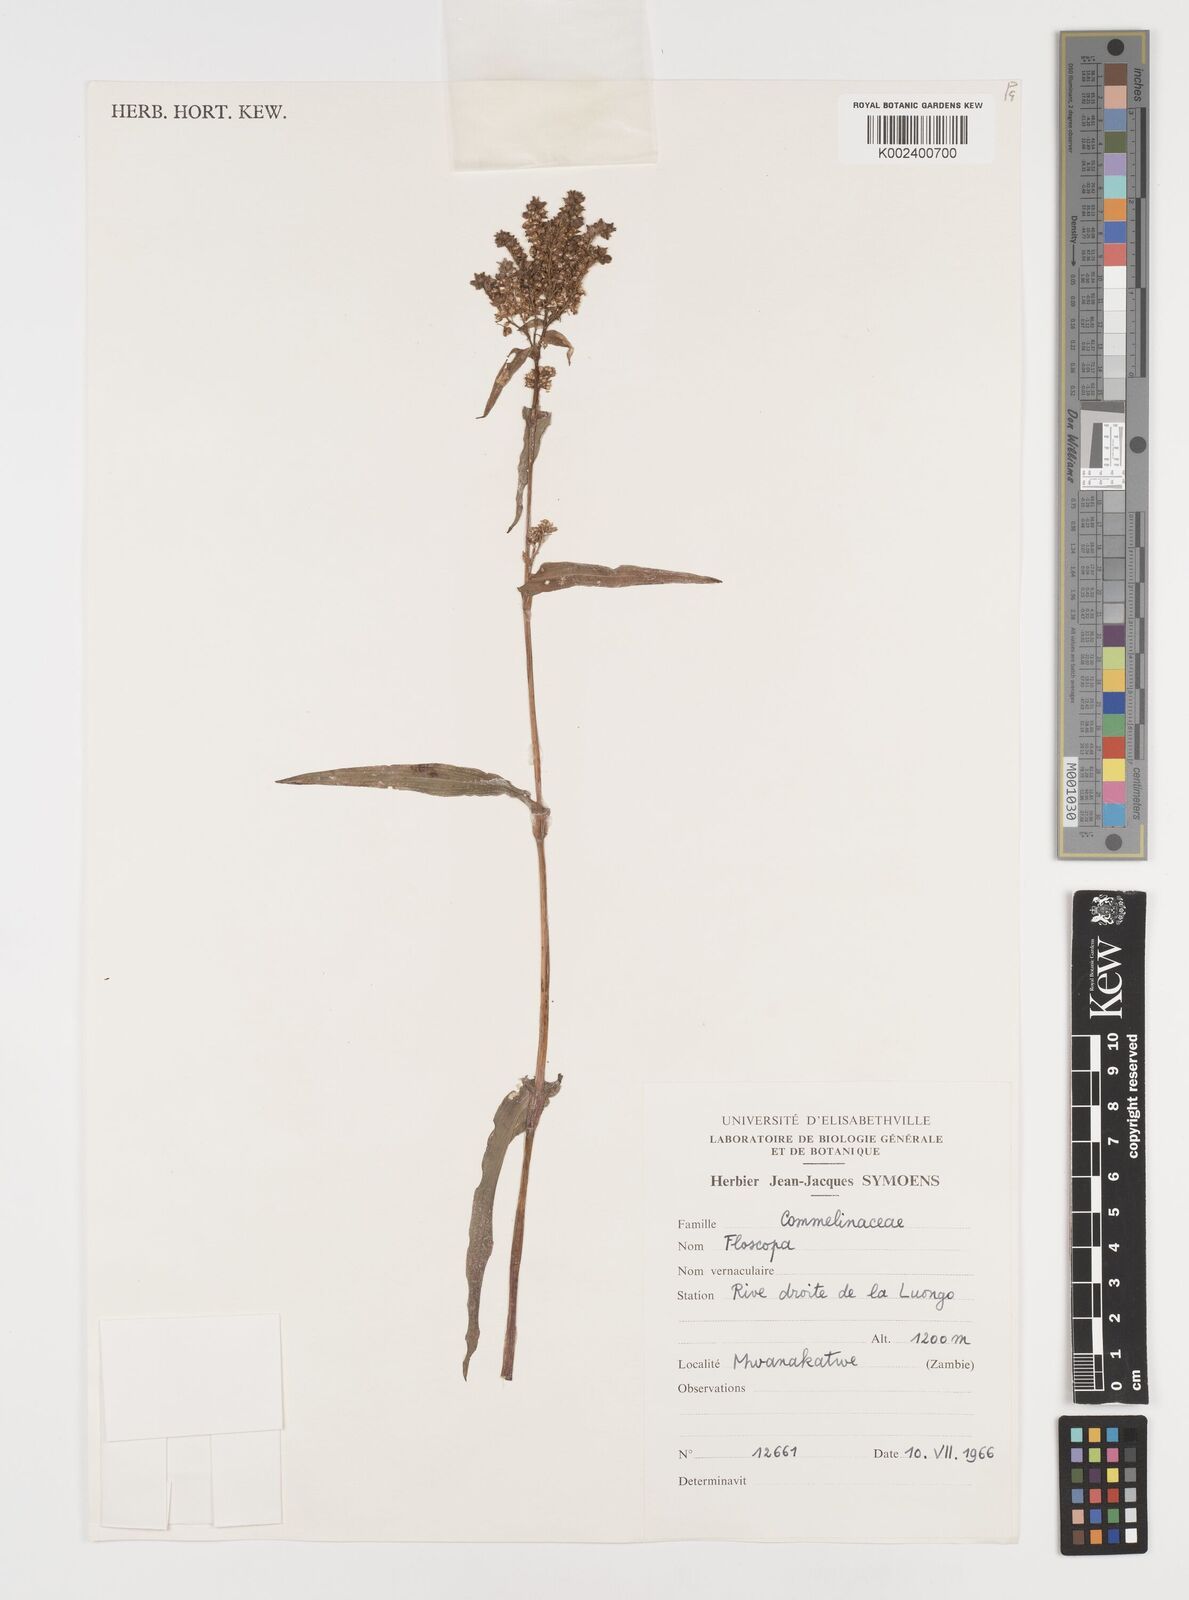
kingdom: Plantae
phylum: Tracheophyta
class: Liliopsida
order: Commelinales
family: Commelinaceae
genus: Floscopa
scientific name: Floscopa
